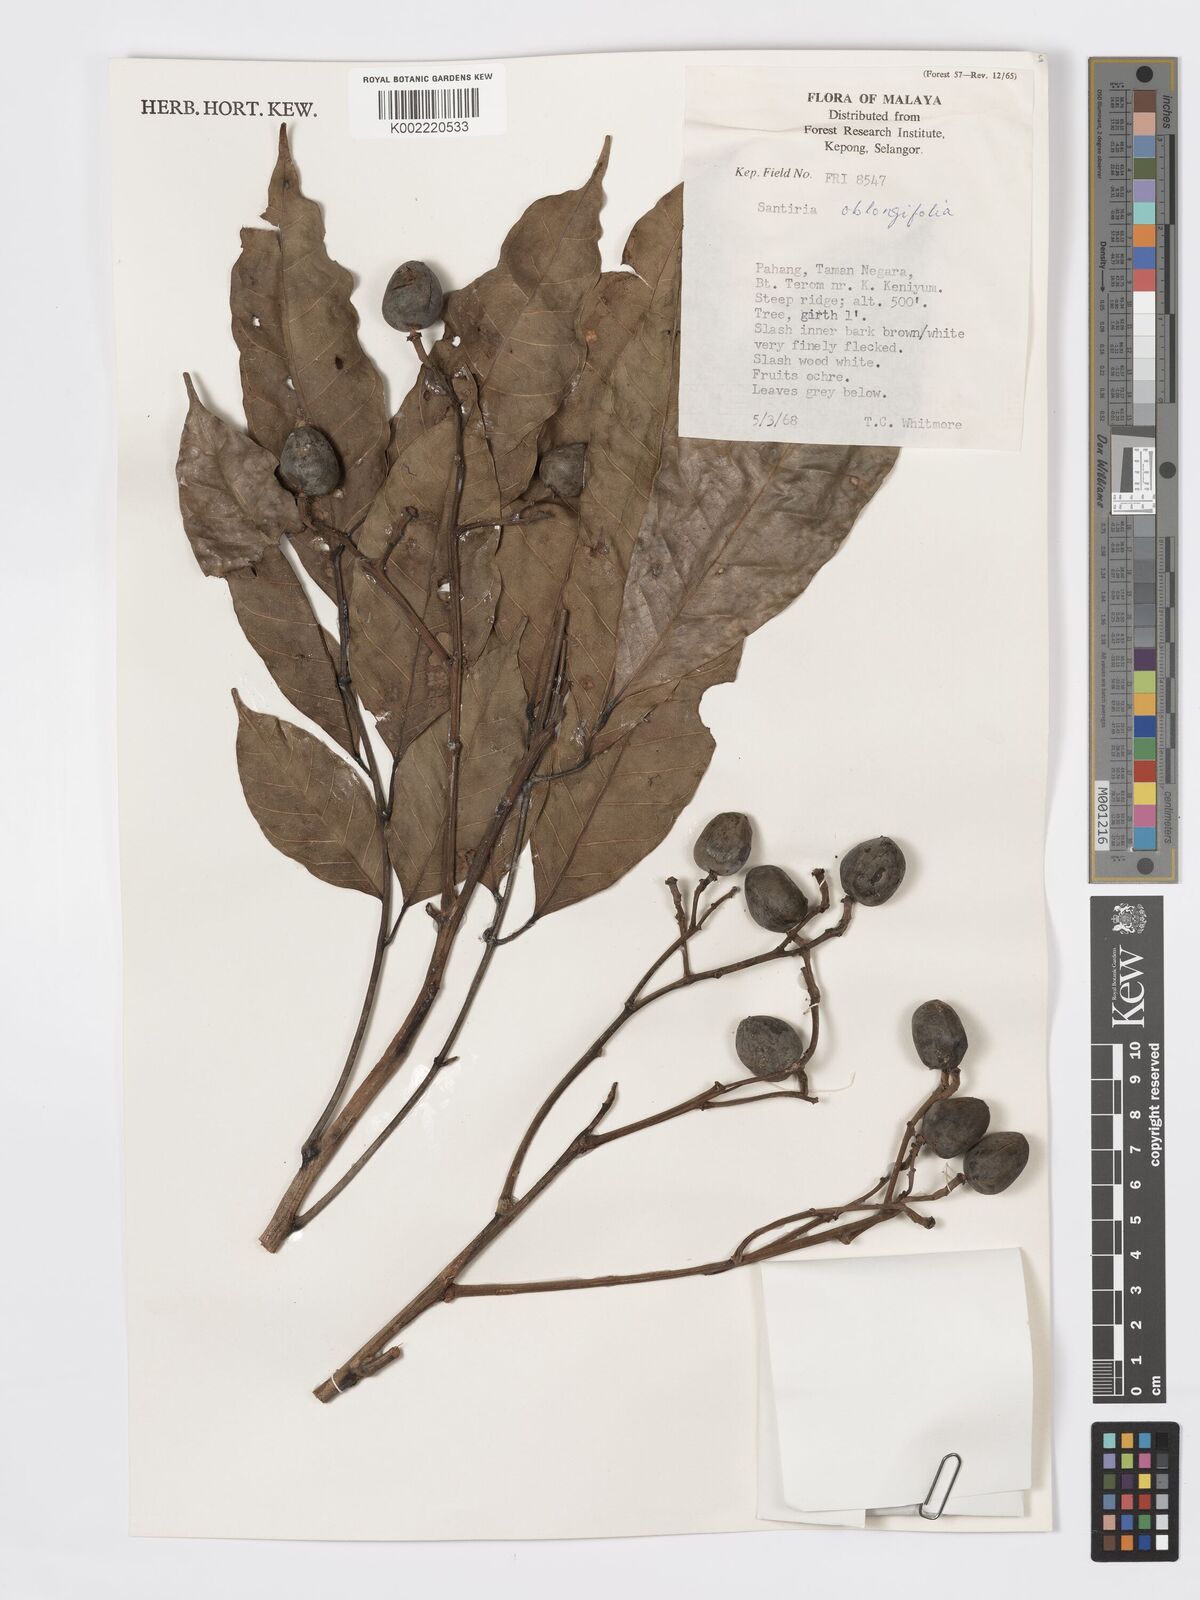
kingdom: Plantae
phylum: Tracheophyta
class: Magnoliopsida
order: Sapindales
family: Burseraceae
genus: Santiria
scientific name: Santiria oblongifolia
